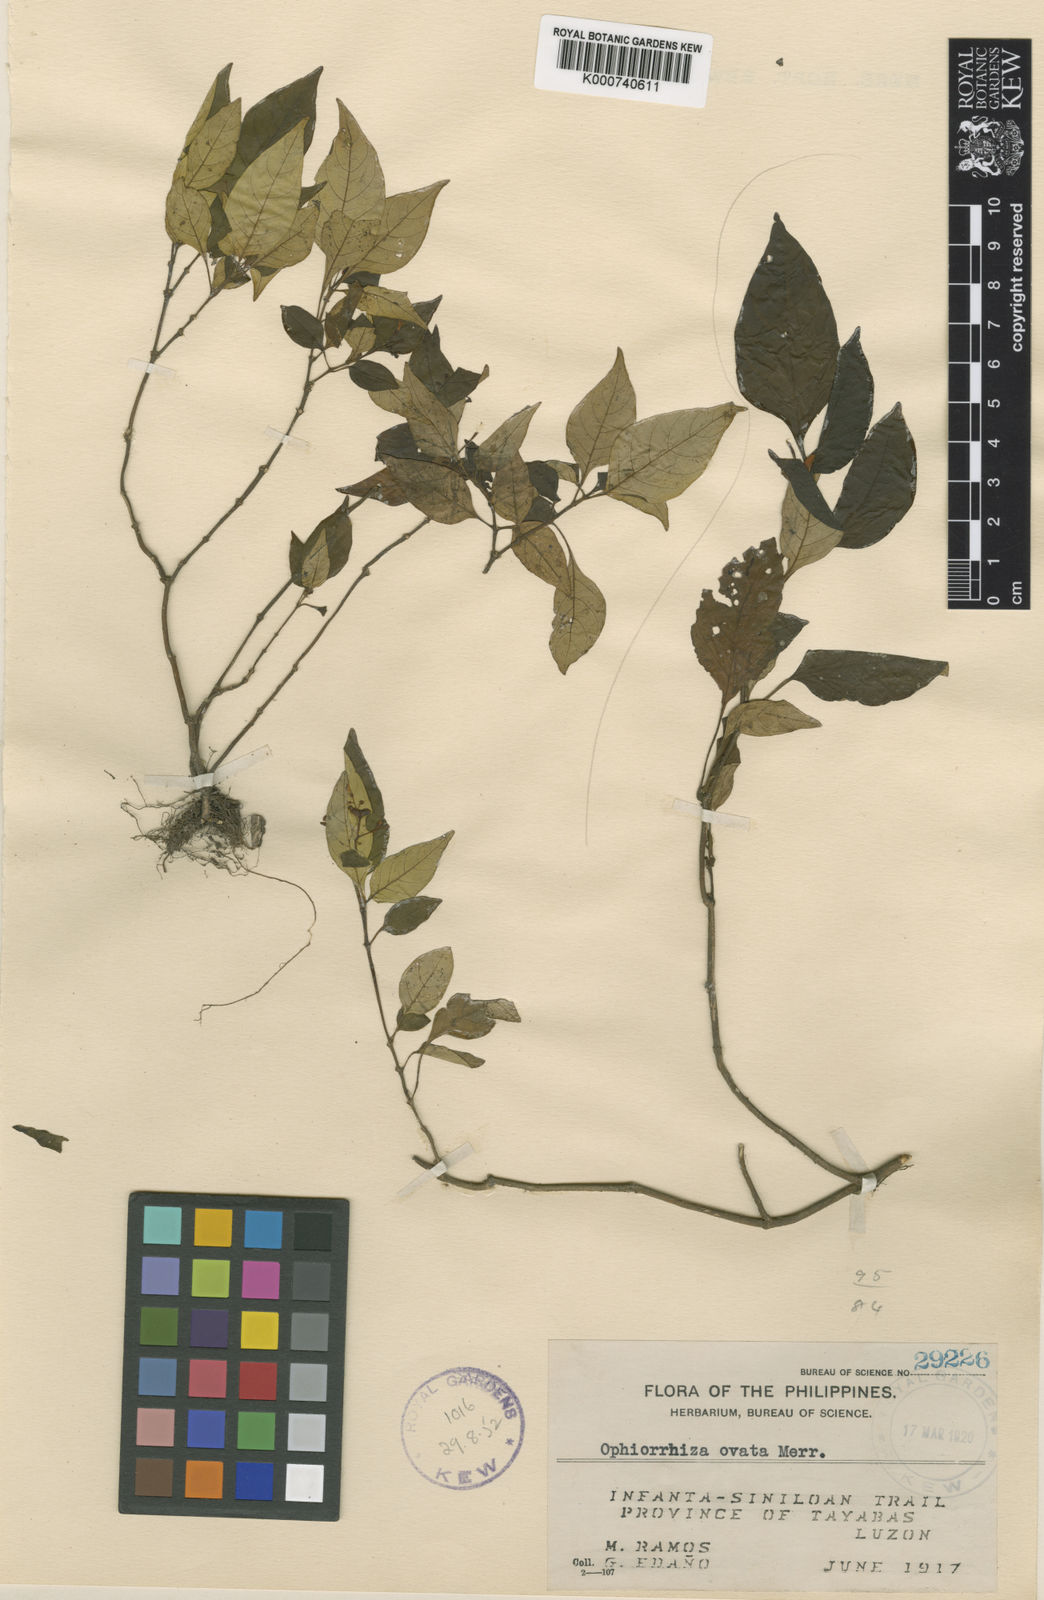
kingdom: Plantae
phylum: Tracheophyta
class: Magnoliopsida
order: Gentianales
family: Rubiaceae
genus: Ophiorrhiza
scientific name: Ophiorrhiza ovata
